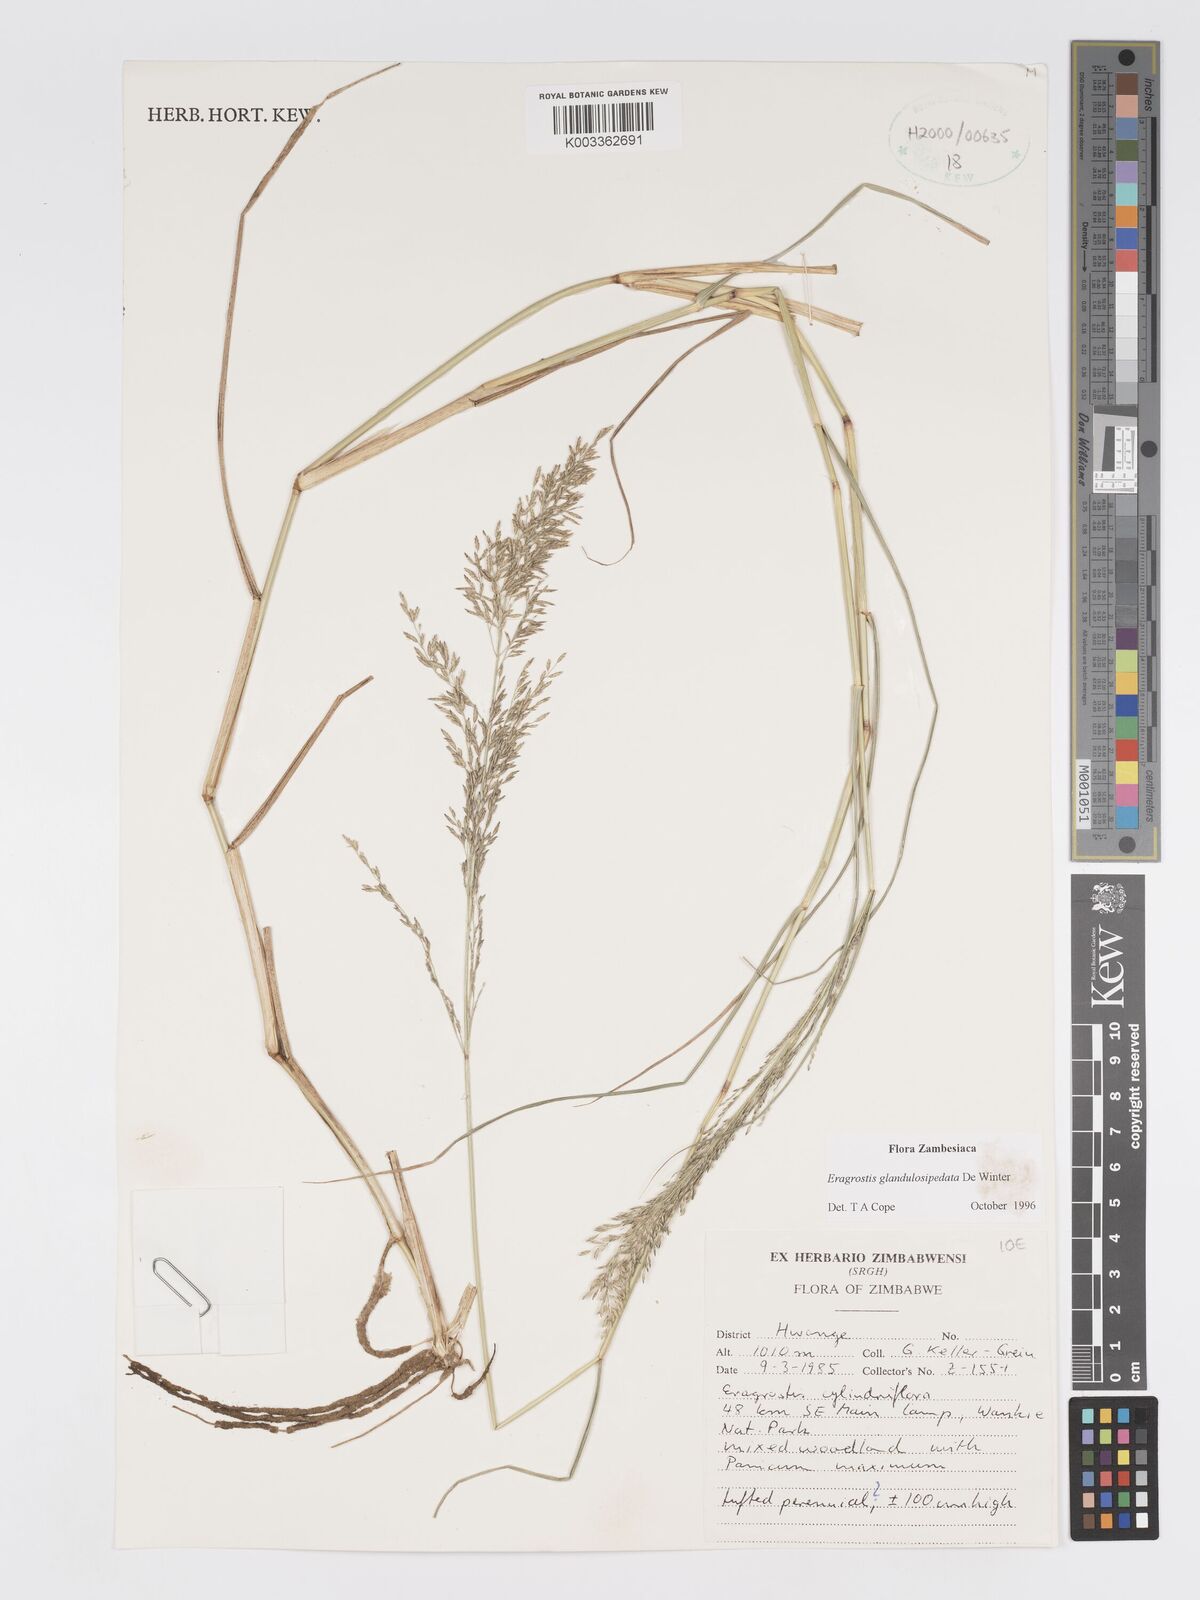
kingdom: Plantae
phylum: Tracheophyta
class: Liliopsida
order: Poales
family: Poaceae
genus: Eragrostis
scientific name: Eragrostis glandulosipedata
